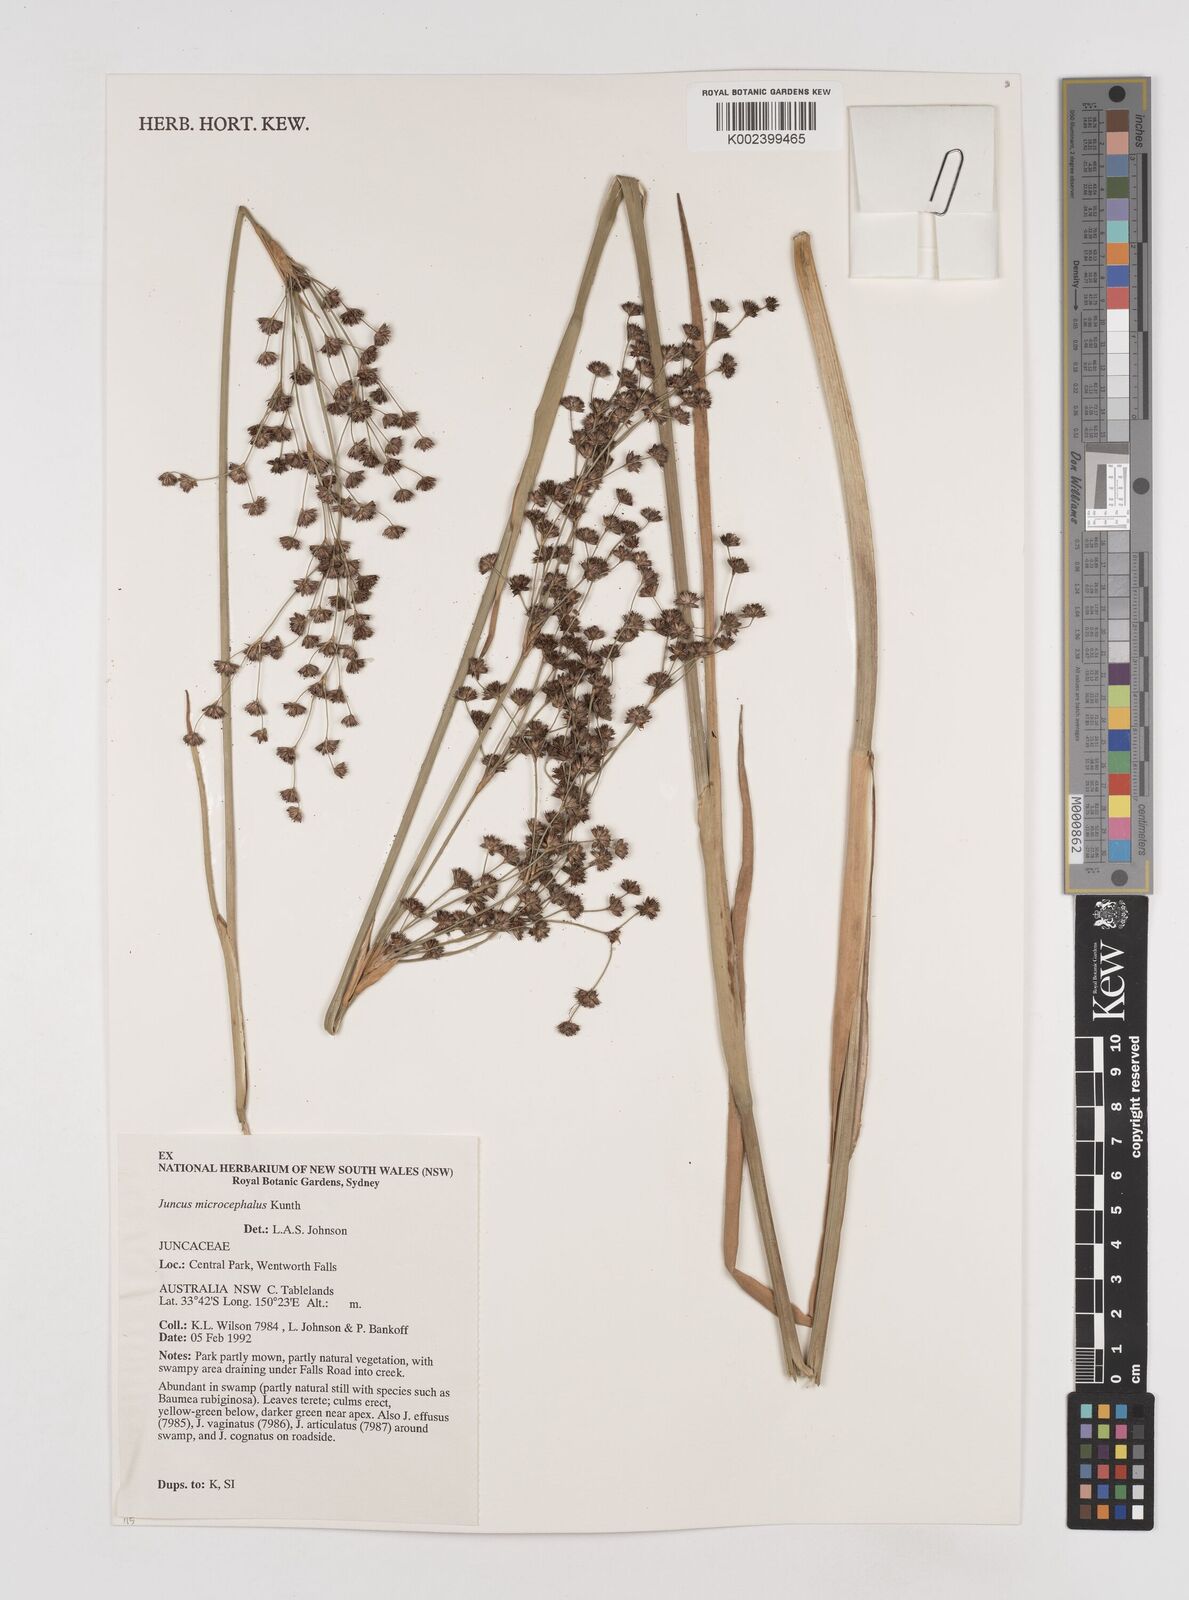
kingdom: Plantae
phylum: Tracheophyta
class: Liliopsida
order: Poales
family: Juncaceae
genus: Juncus
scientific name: Juncus microcephalus
